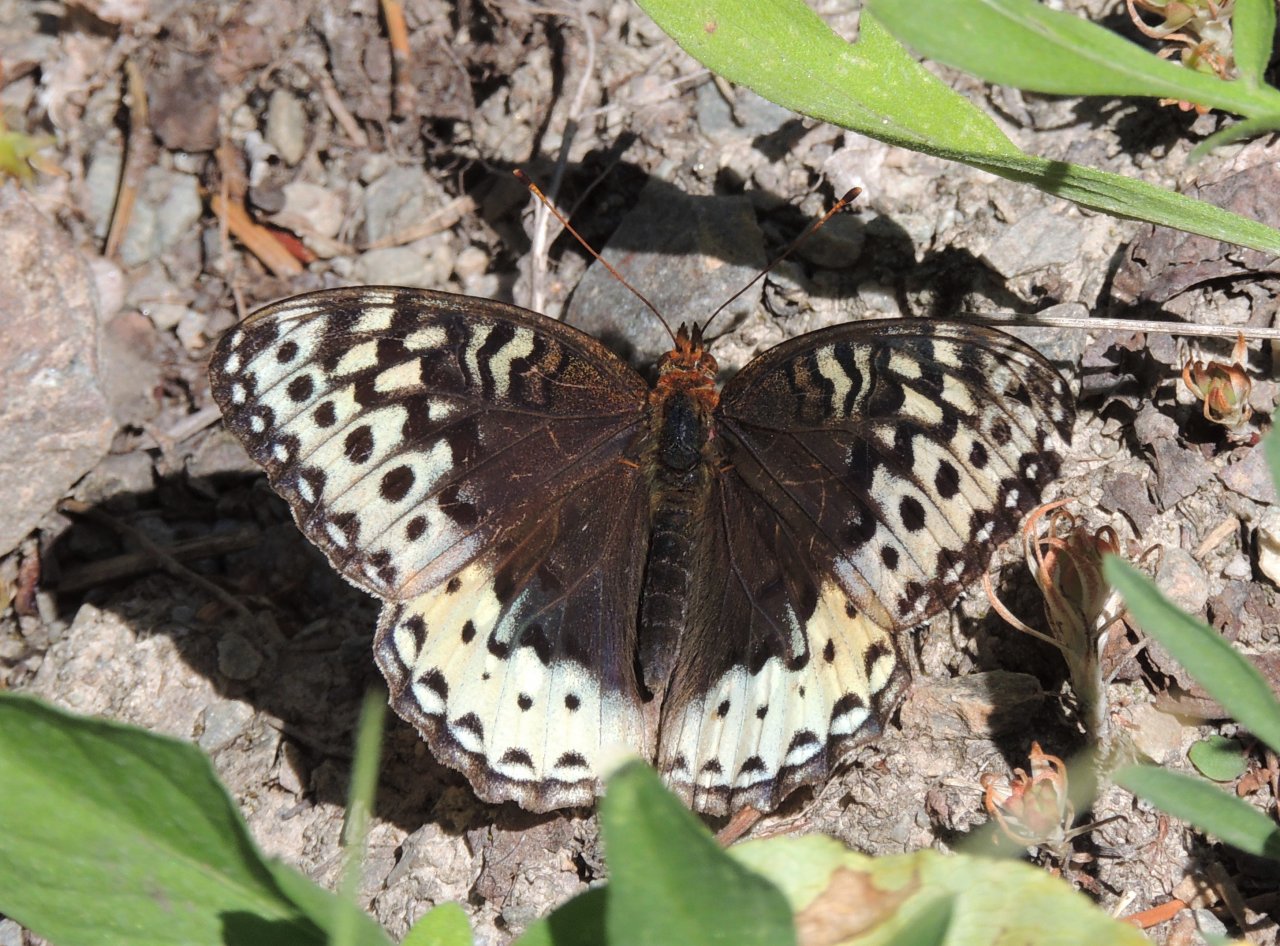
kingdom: Animalia
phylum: Arthropoda
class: Insecta
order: Lepidoptera
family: Nymphalidae
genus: Speyeria
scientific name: Speyeria cybele
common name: Great Spangled Fritillary
